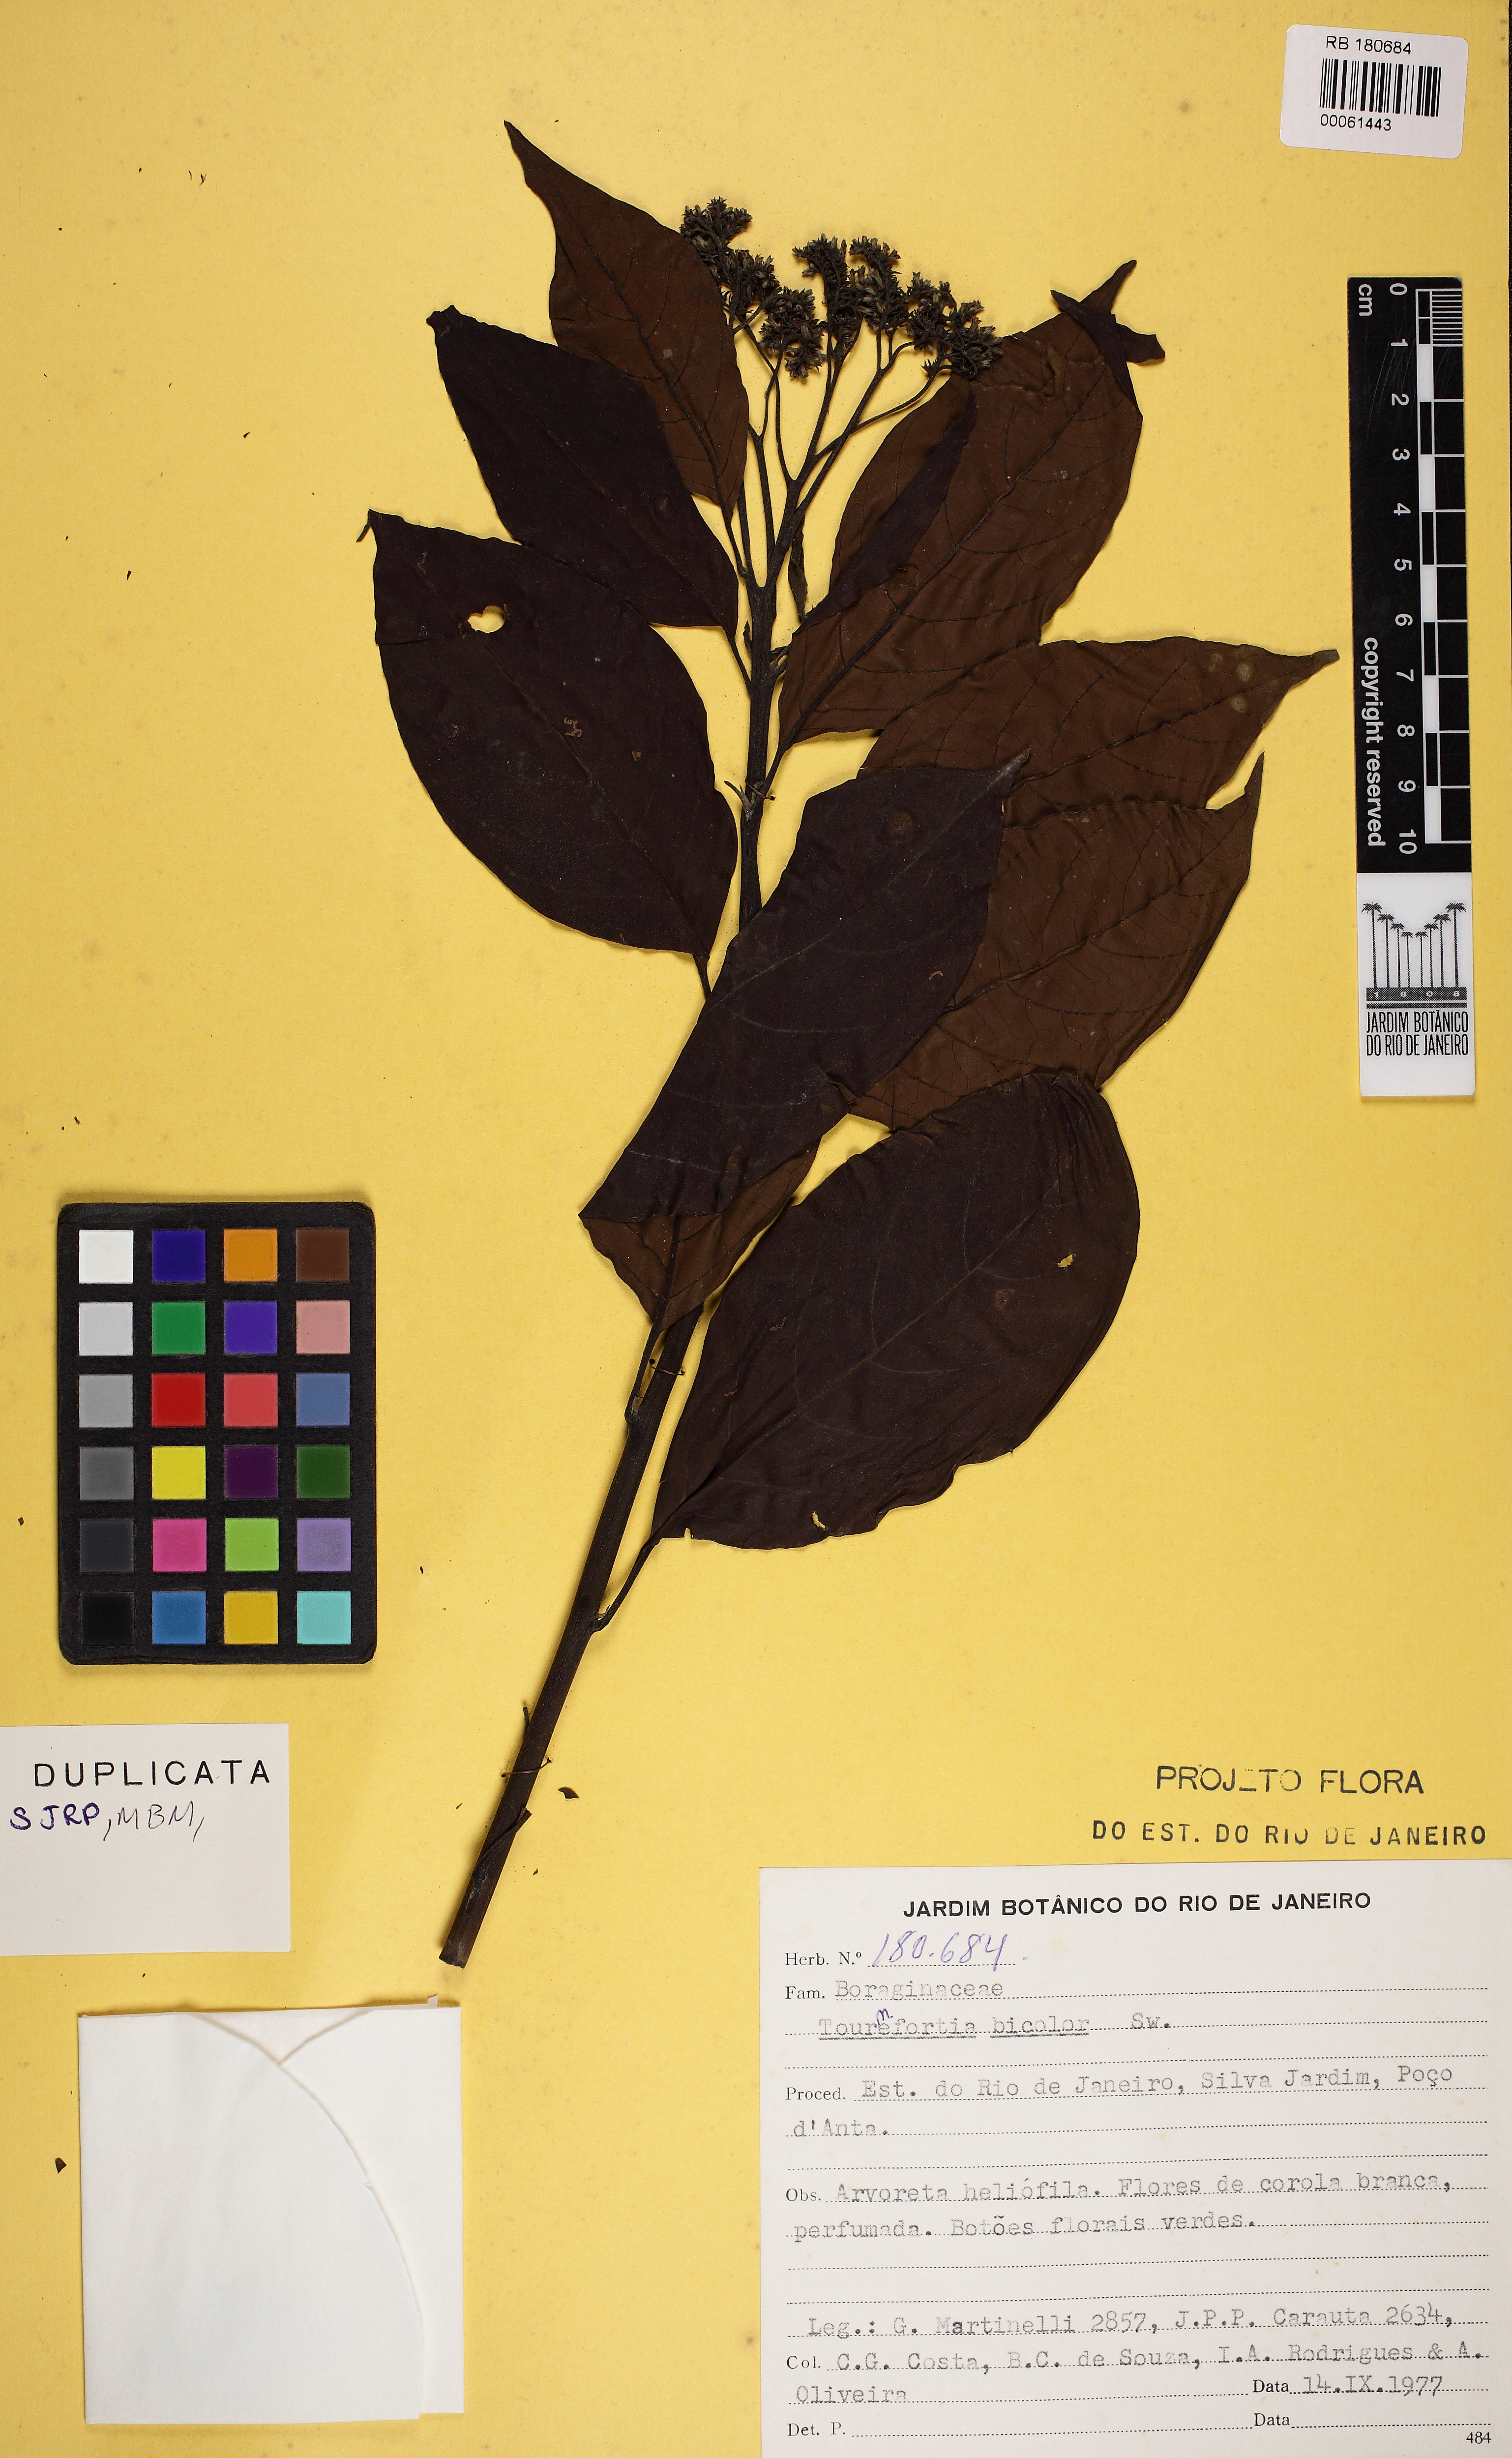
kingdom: Plantae
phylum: Tracheophyta
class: Magnoliopsida
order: Boraginales
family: Heliotropiaceae
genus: Heliotropium
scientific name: Heliotropium verdcourtii
